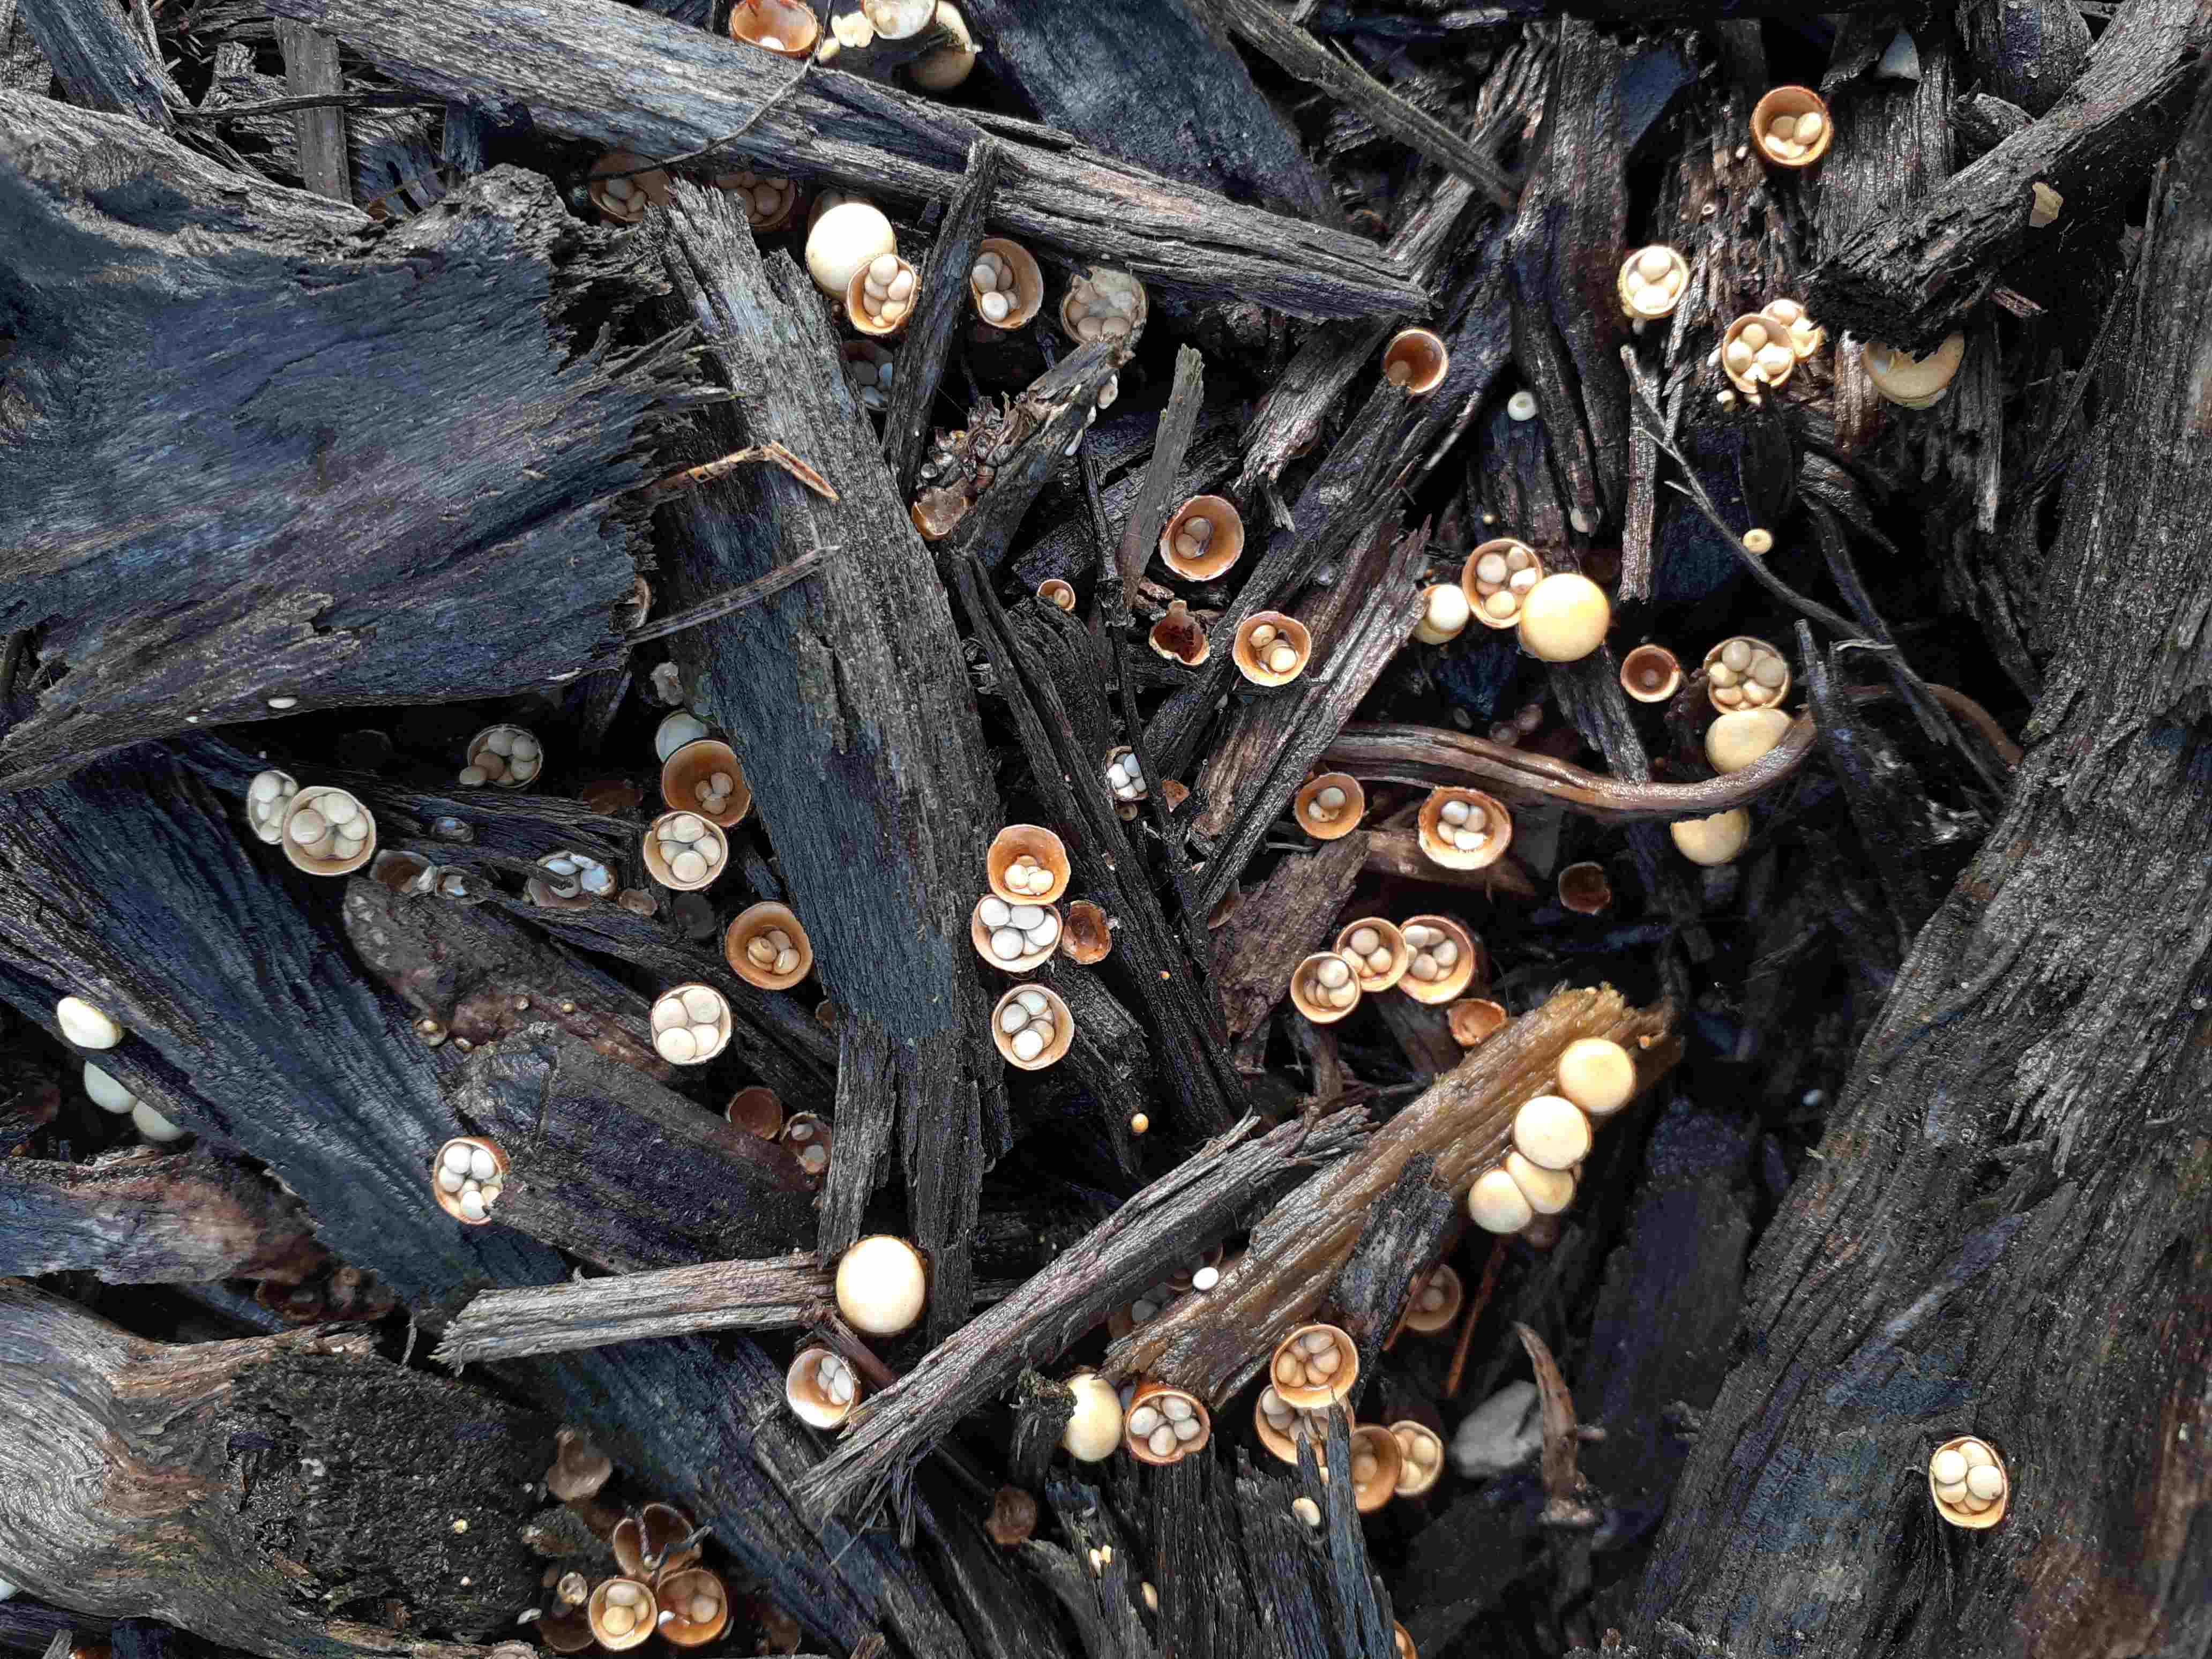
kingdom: Fungi
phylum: Basidiomycota
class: Agaricomycetes
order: Agaricales
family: Nidulariaceae
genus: Crucibulum
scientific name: Crucibulum crucibuliforme
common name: krukkesvamp
